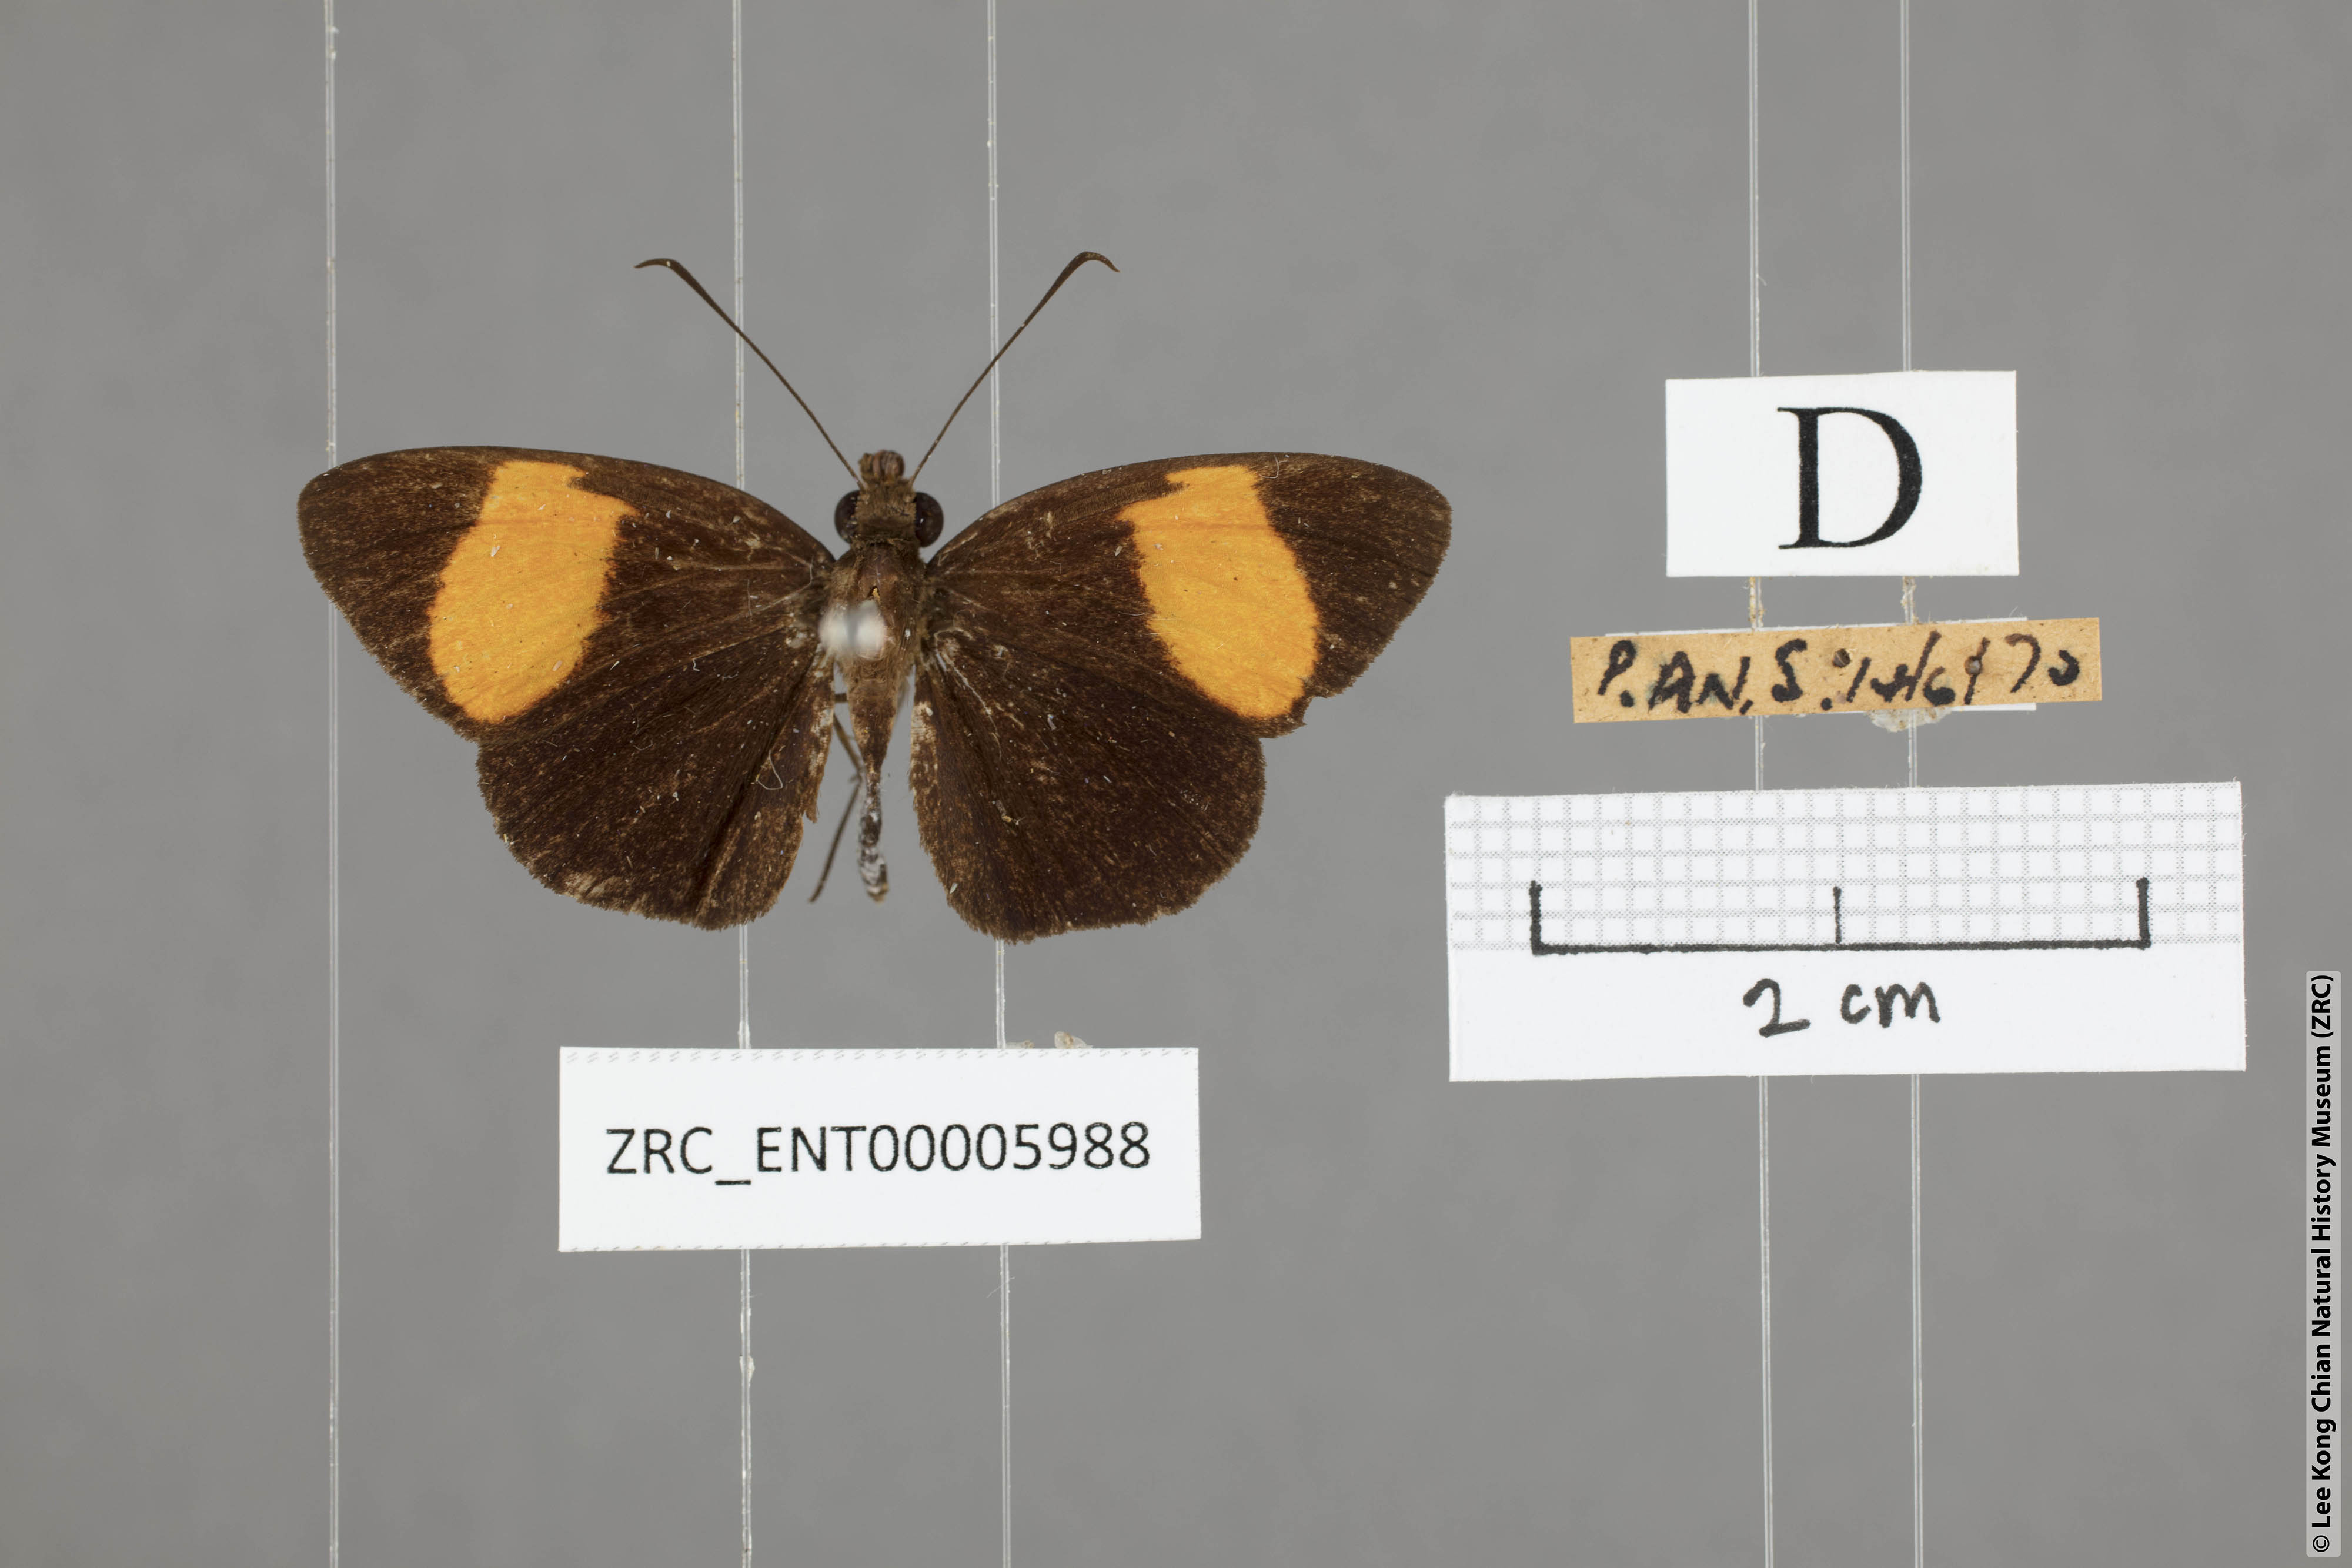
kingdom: Animalia
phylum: Arthropoda
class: Insecta
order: Lepidoptera
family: Hesperiidae
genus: Ancistroides
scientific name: Ancistroides gemmifer
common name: Gem demon
